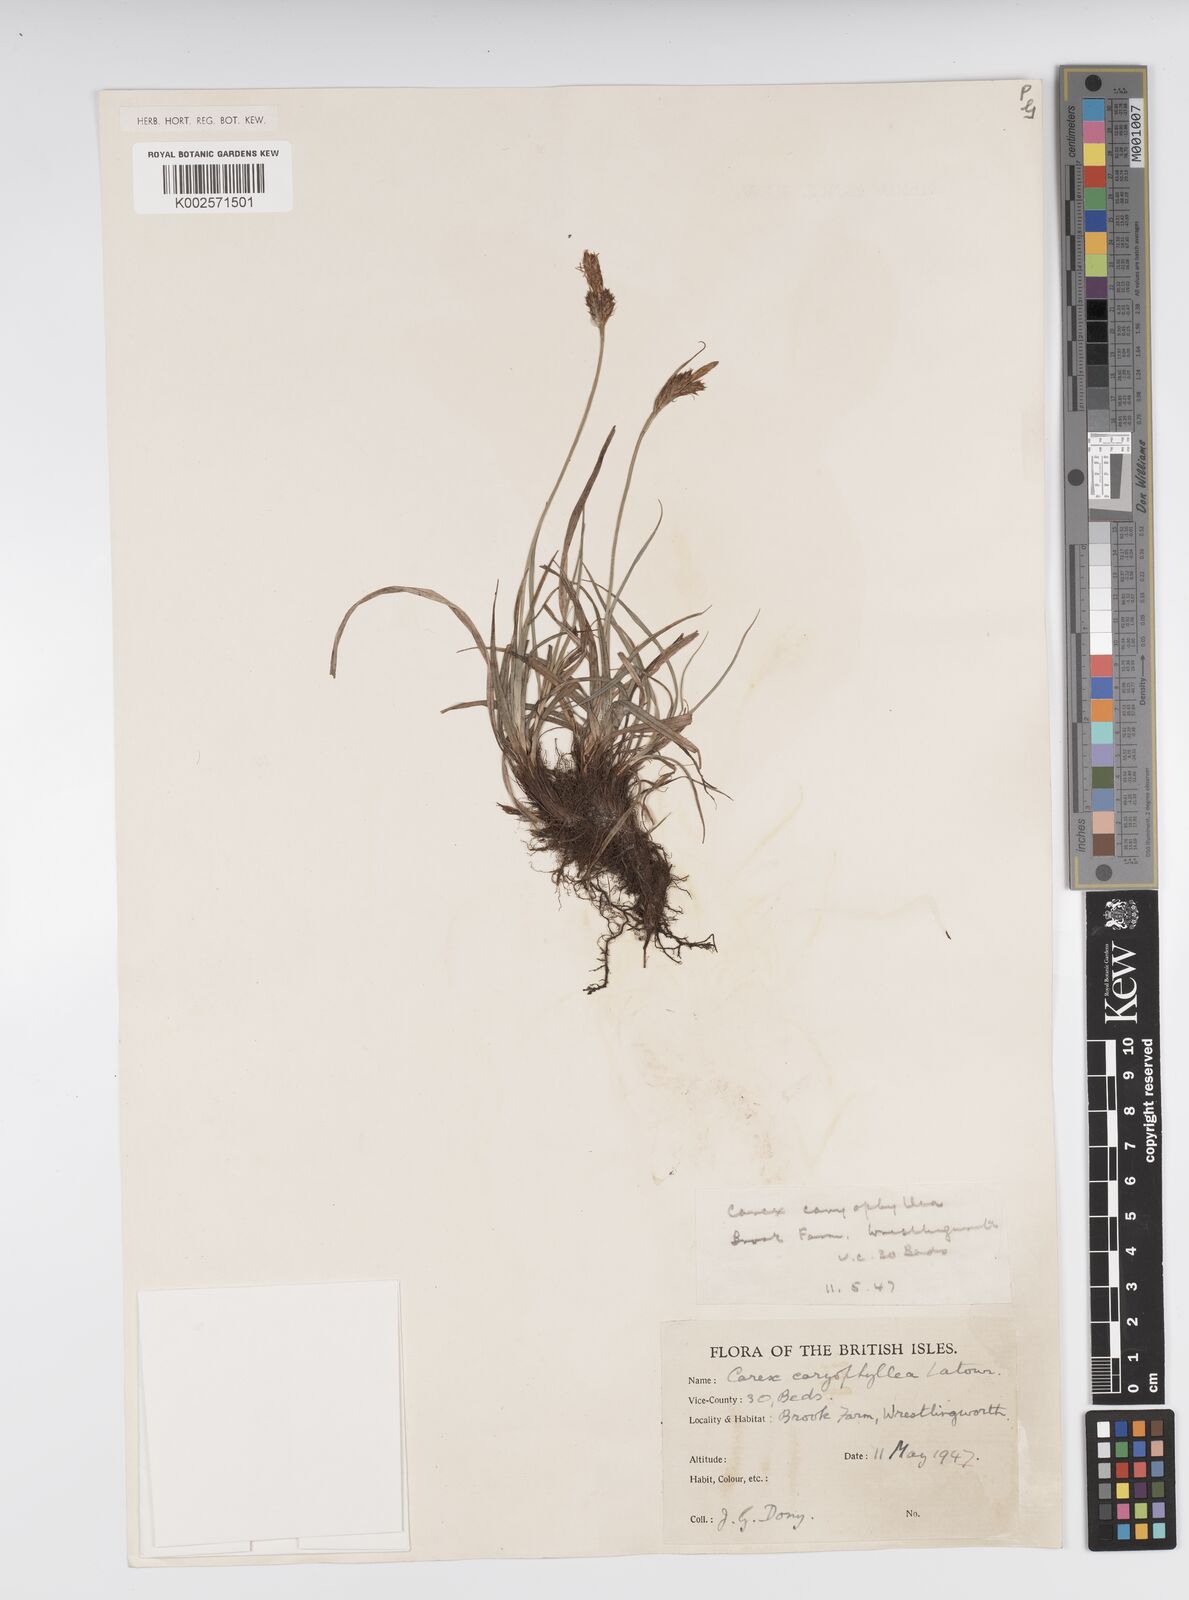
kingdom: Plantae
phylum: Tracheophyta
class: Liliopsida
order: Poales
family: Cyperaceae
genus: Carex
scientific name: Carex caryophyllea
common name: Spring sedge
